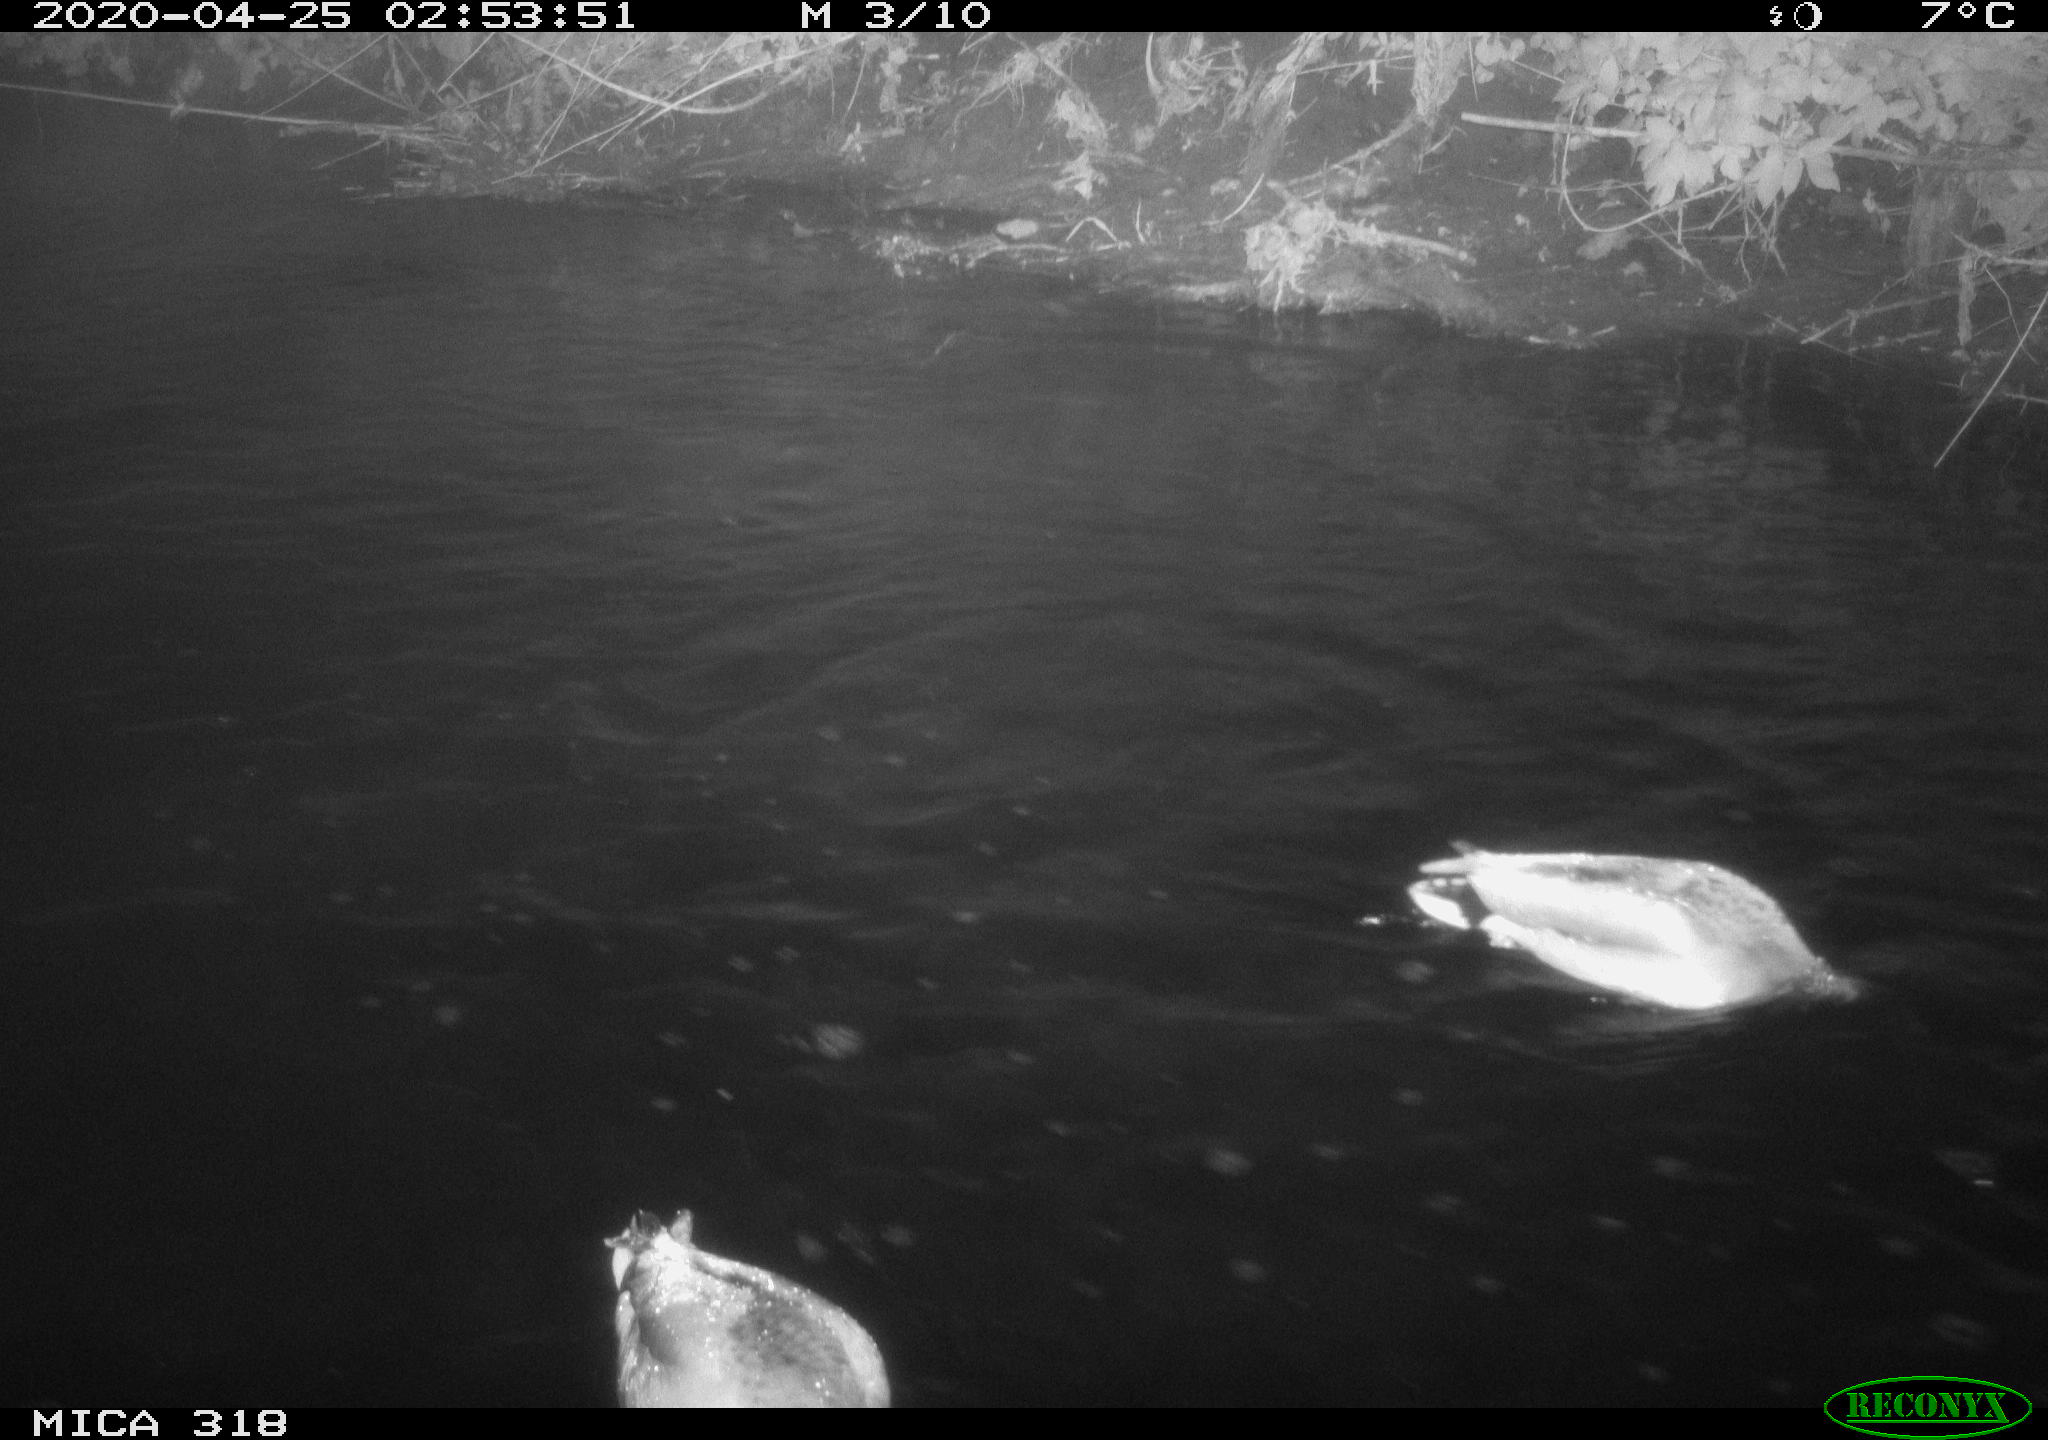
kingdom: Animalia
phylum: Chordata
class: Aves
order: Anseriformes
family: Anatidae
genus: Anas
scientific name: Anas platyrhynchos
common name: Mallard
